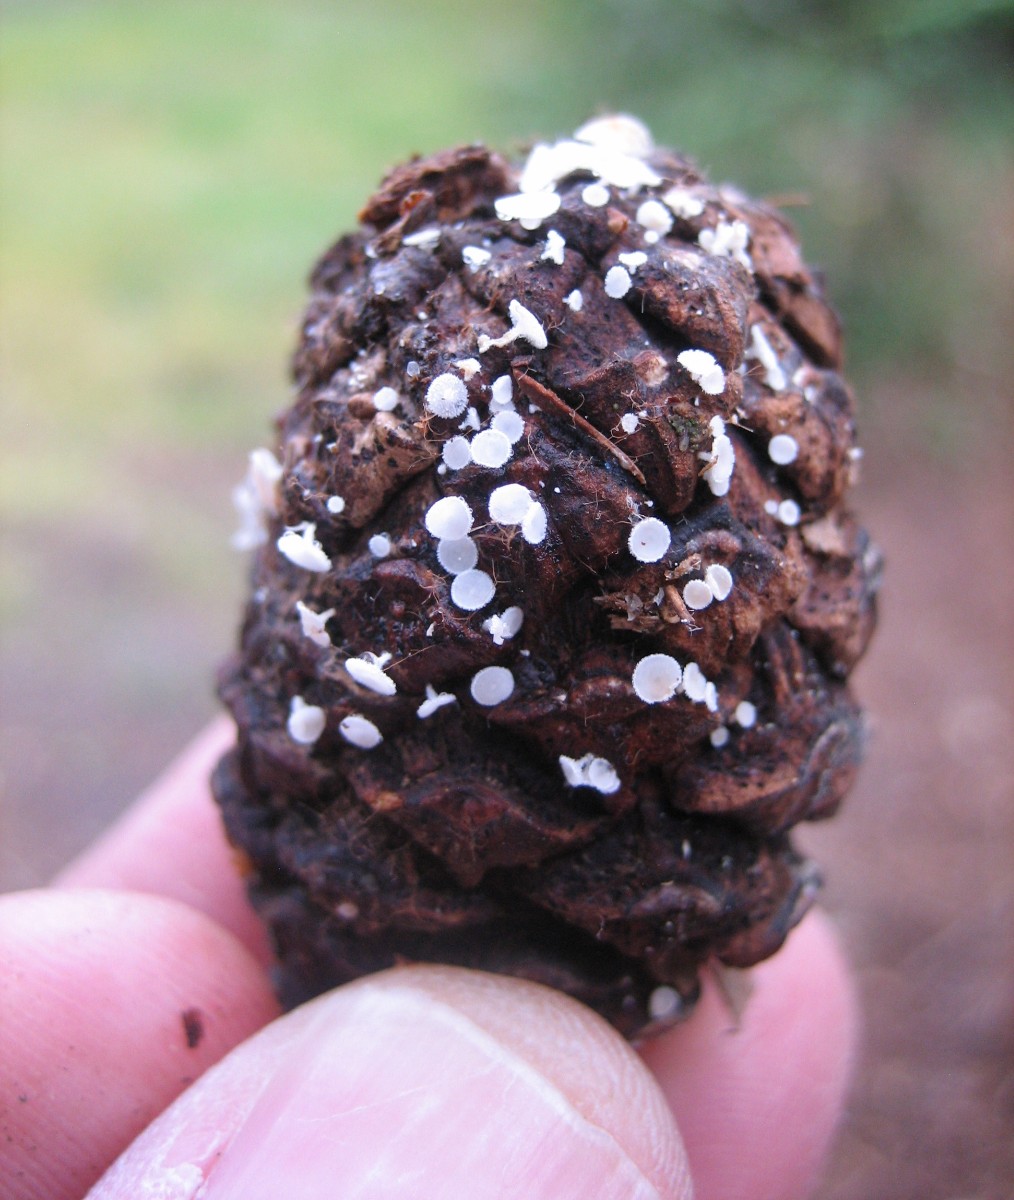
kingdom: Fungi
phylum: Ascomycota
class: Leotiomycetes
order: Helotiales
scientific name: Helotiales
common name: stilkskiveordenen
